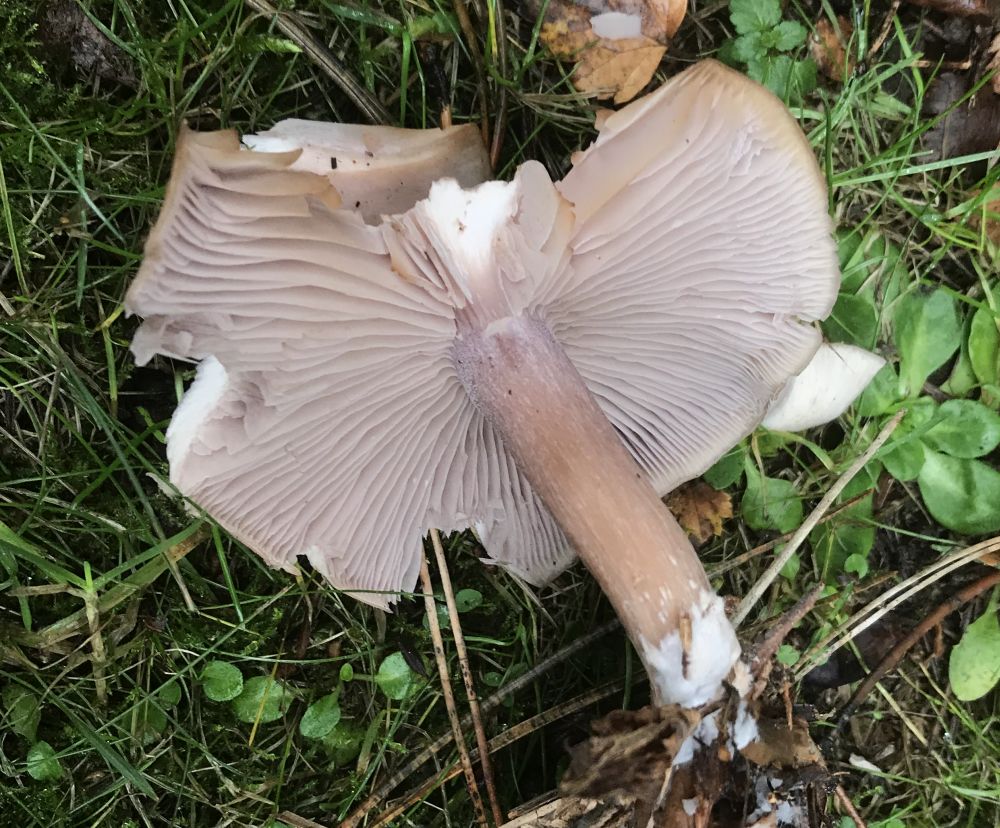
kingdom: Fungi
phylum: Basidiomycota
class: Agaricomycetes
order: Agaricales
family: Tricholomataceae
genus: Lepista
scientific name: Lepista
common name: hekseringshat
